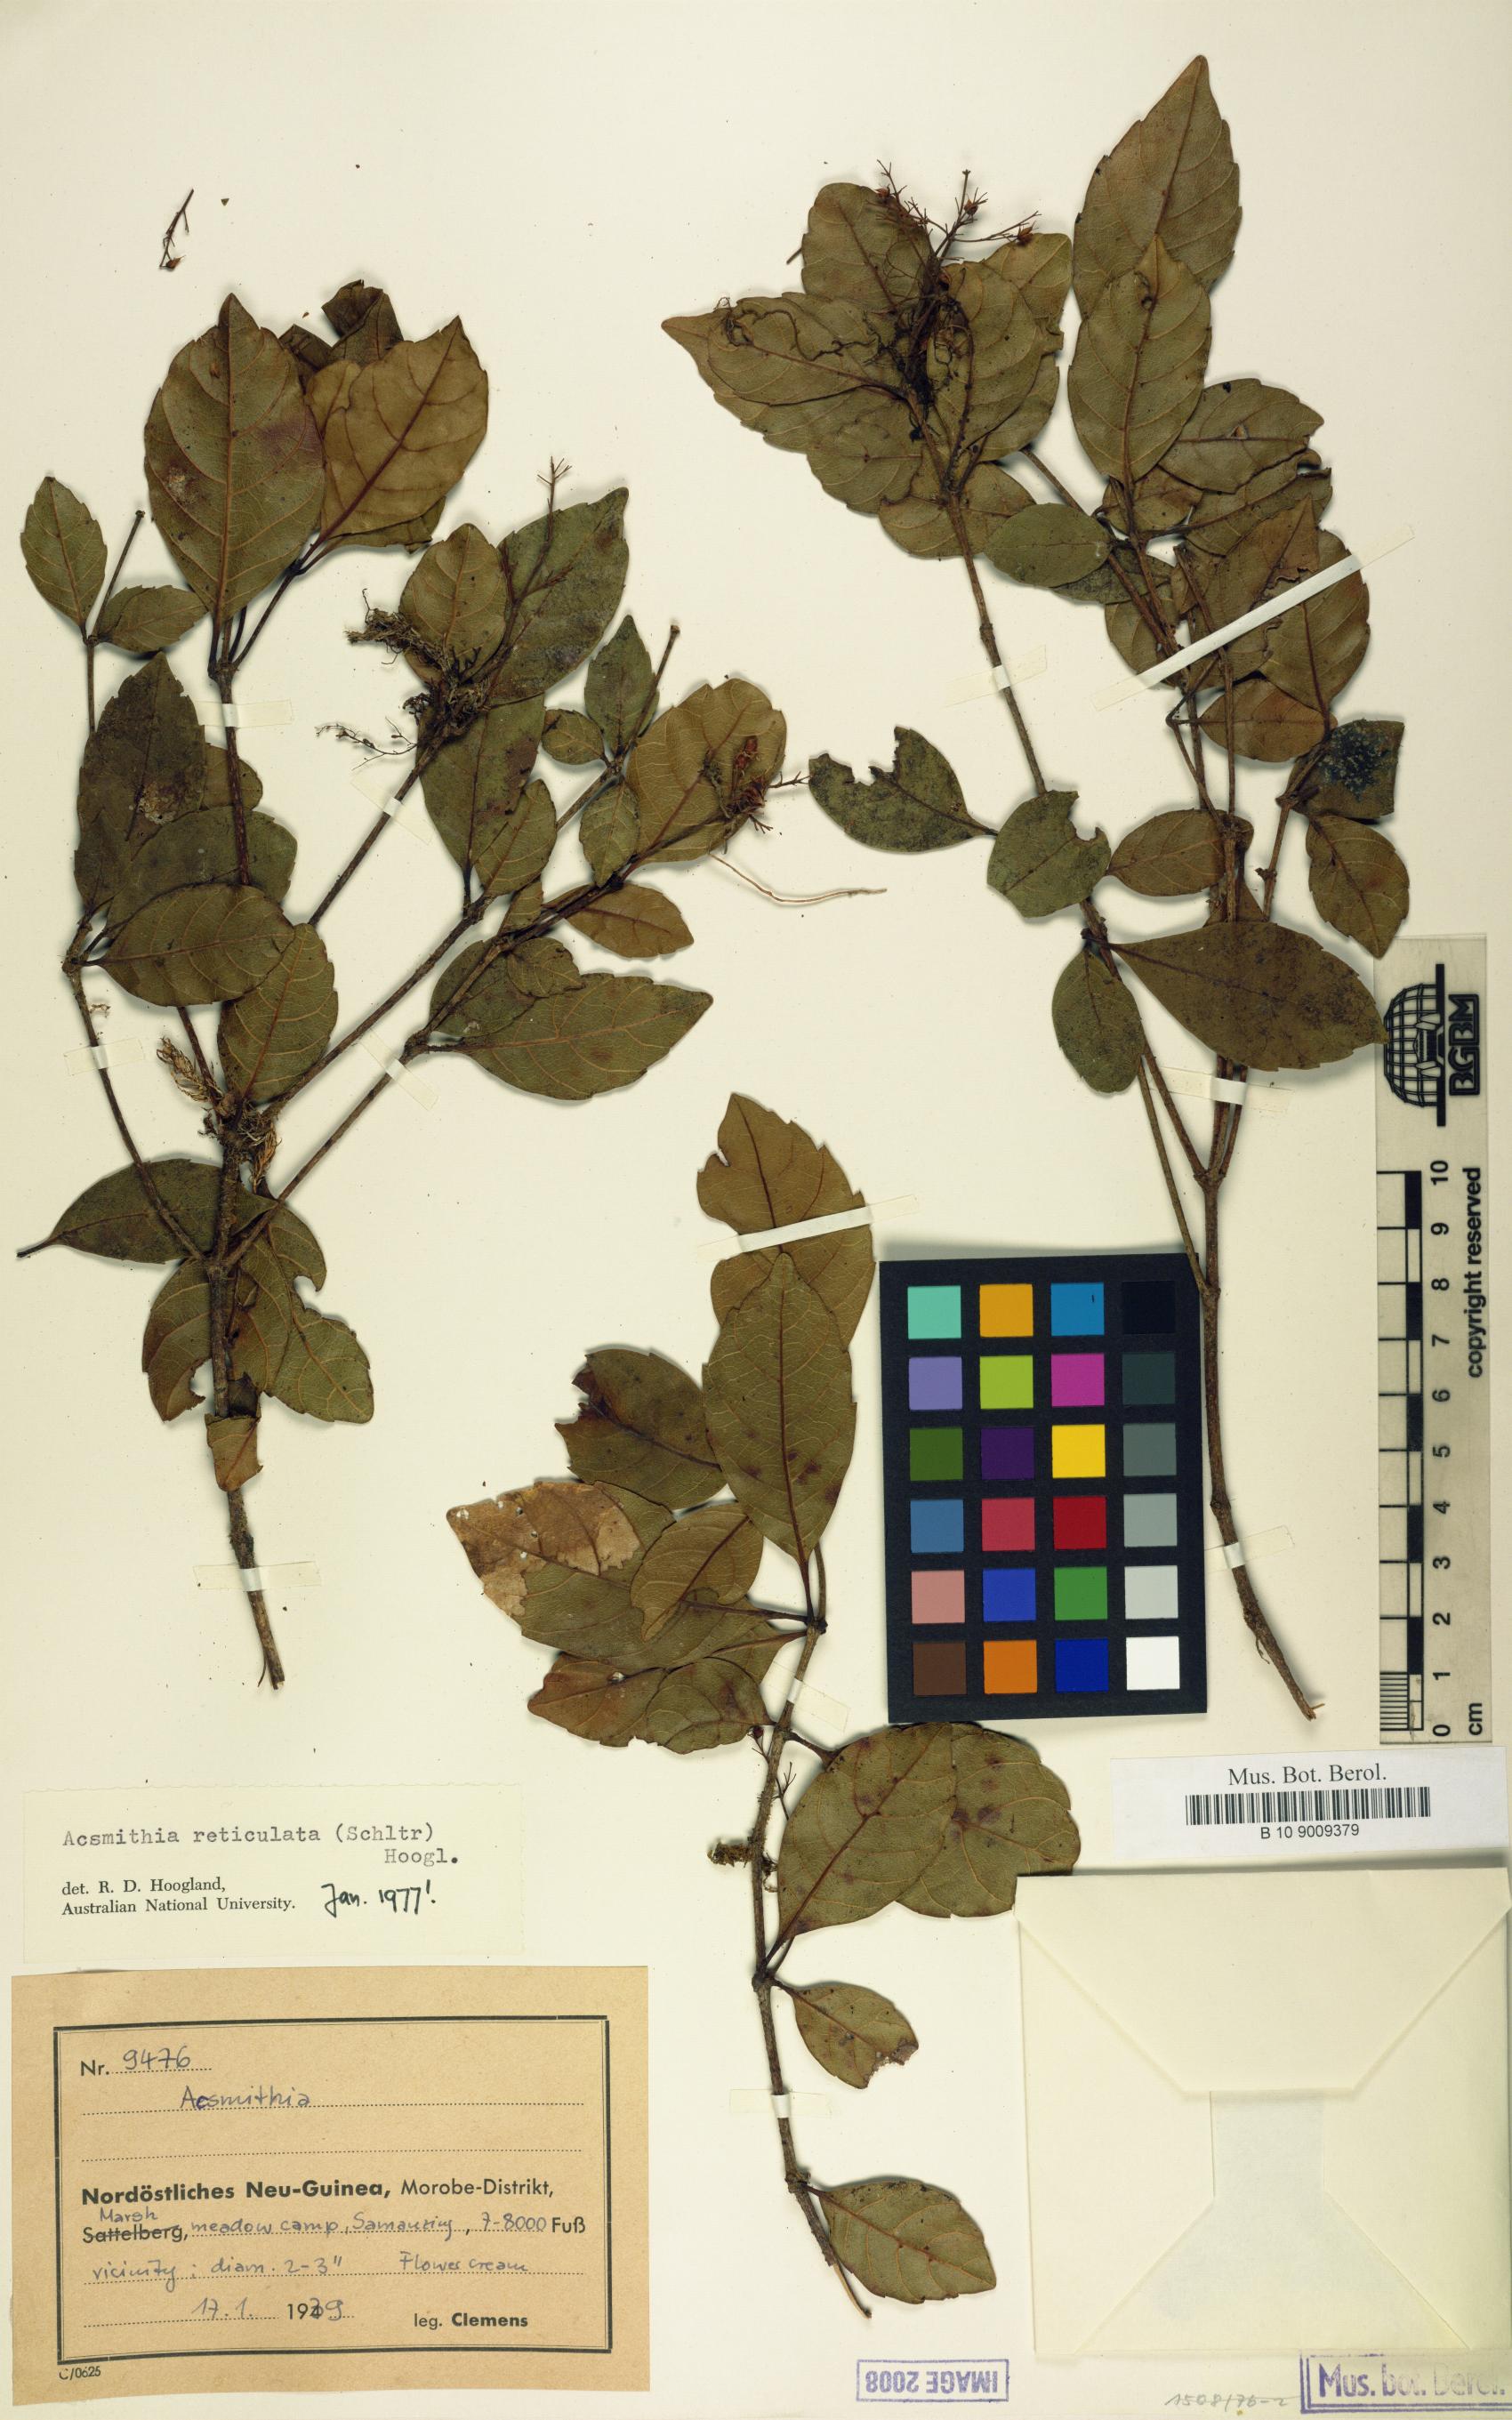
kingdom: Plantae
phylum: Tracheophyta
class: Magnoliopsida
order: Oxalidales
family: Cunoniaceae
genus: Spiraeanthemum
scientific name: Spiraeanthemum reticulatum
